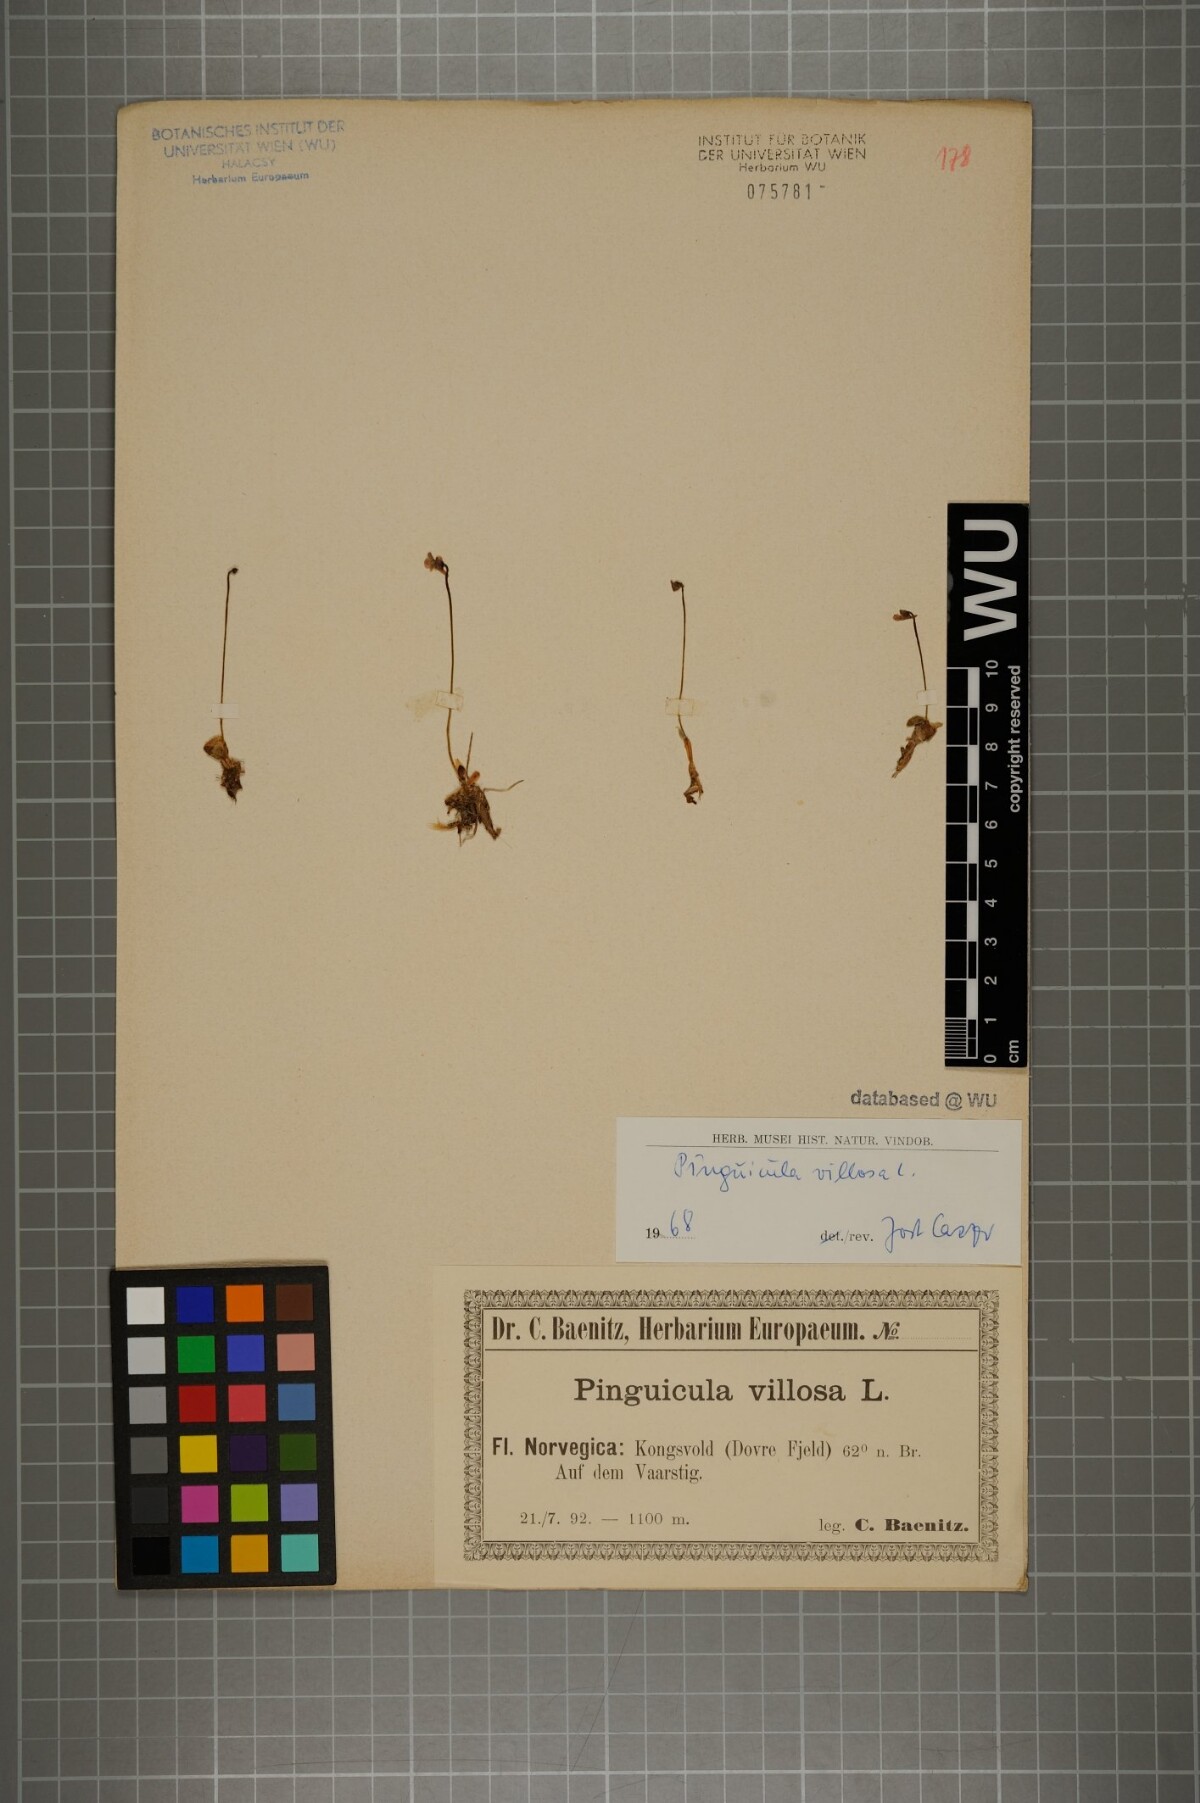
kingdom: Plantae
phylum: Tracheophyta
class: Magnoliopsida
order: Lamiales
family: Lentibulariaceae
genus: Pinguicula
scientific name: Pinguicula villosa
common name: Hairy butterwort
